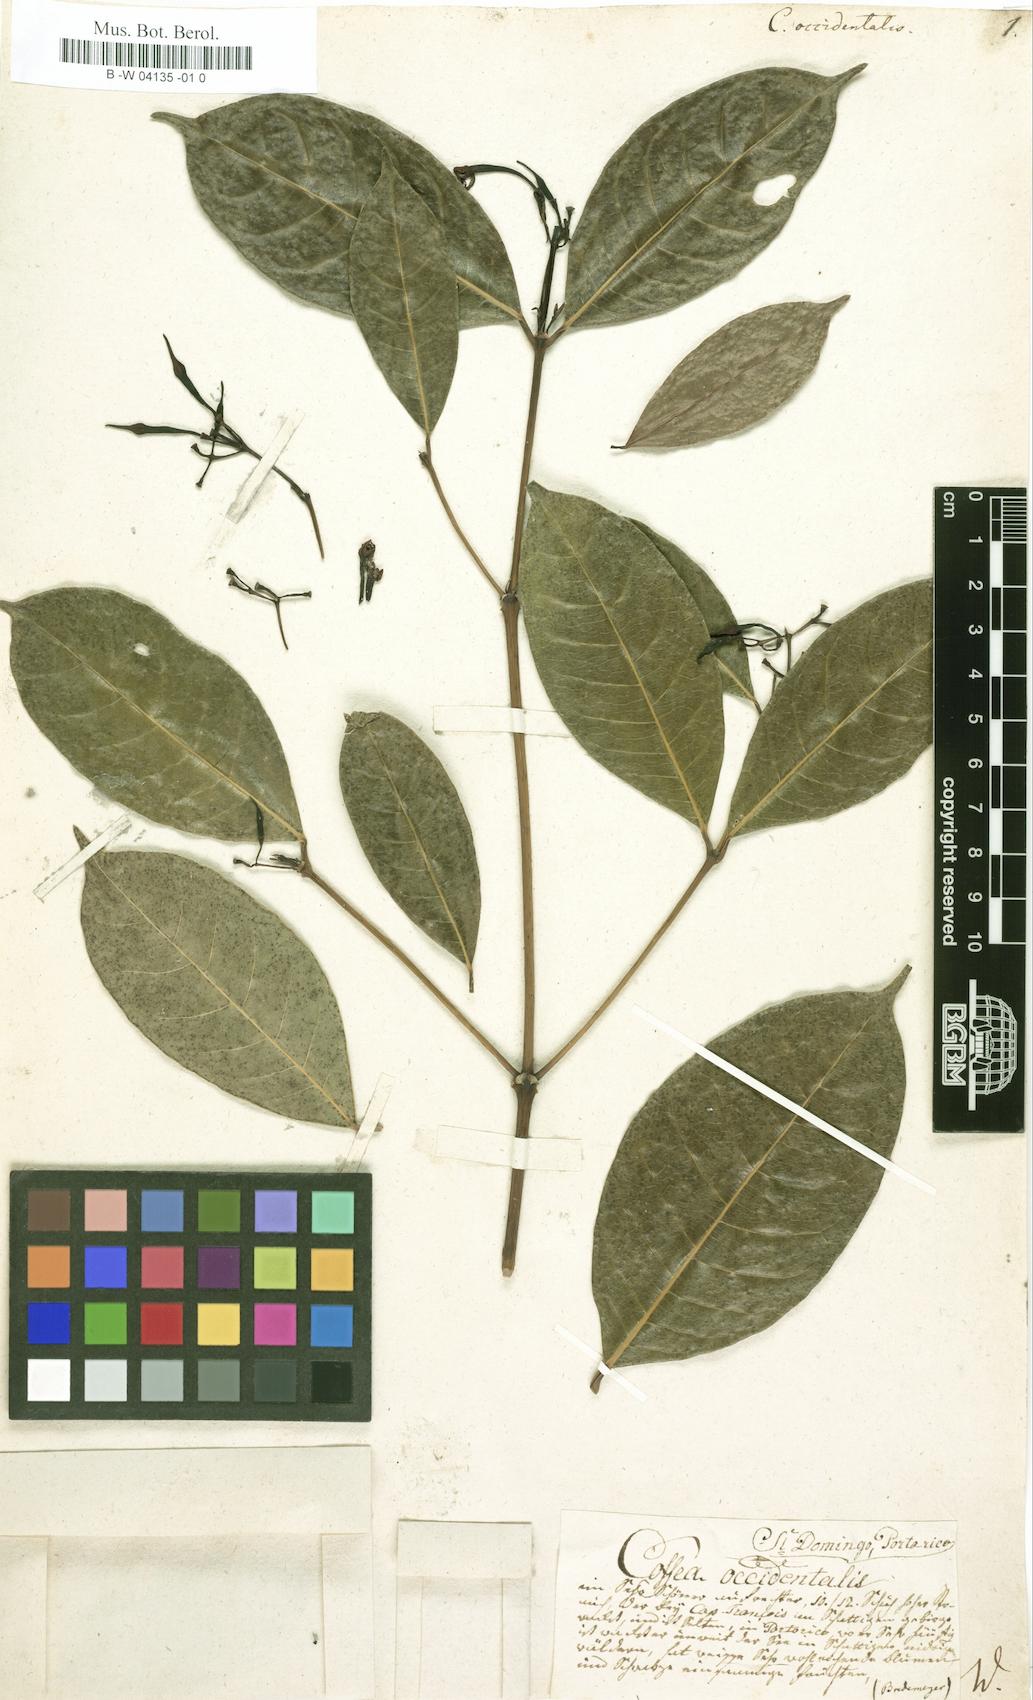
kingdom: Plantae
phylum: Tracheophyta
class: Magnoliopsida
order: Gentianales
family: Rubiaceae
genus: Faramea
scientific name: Faramea
